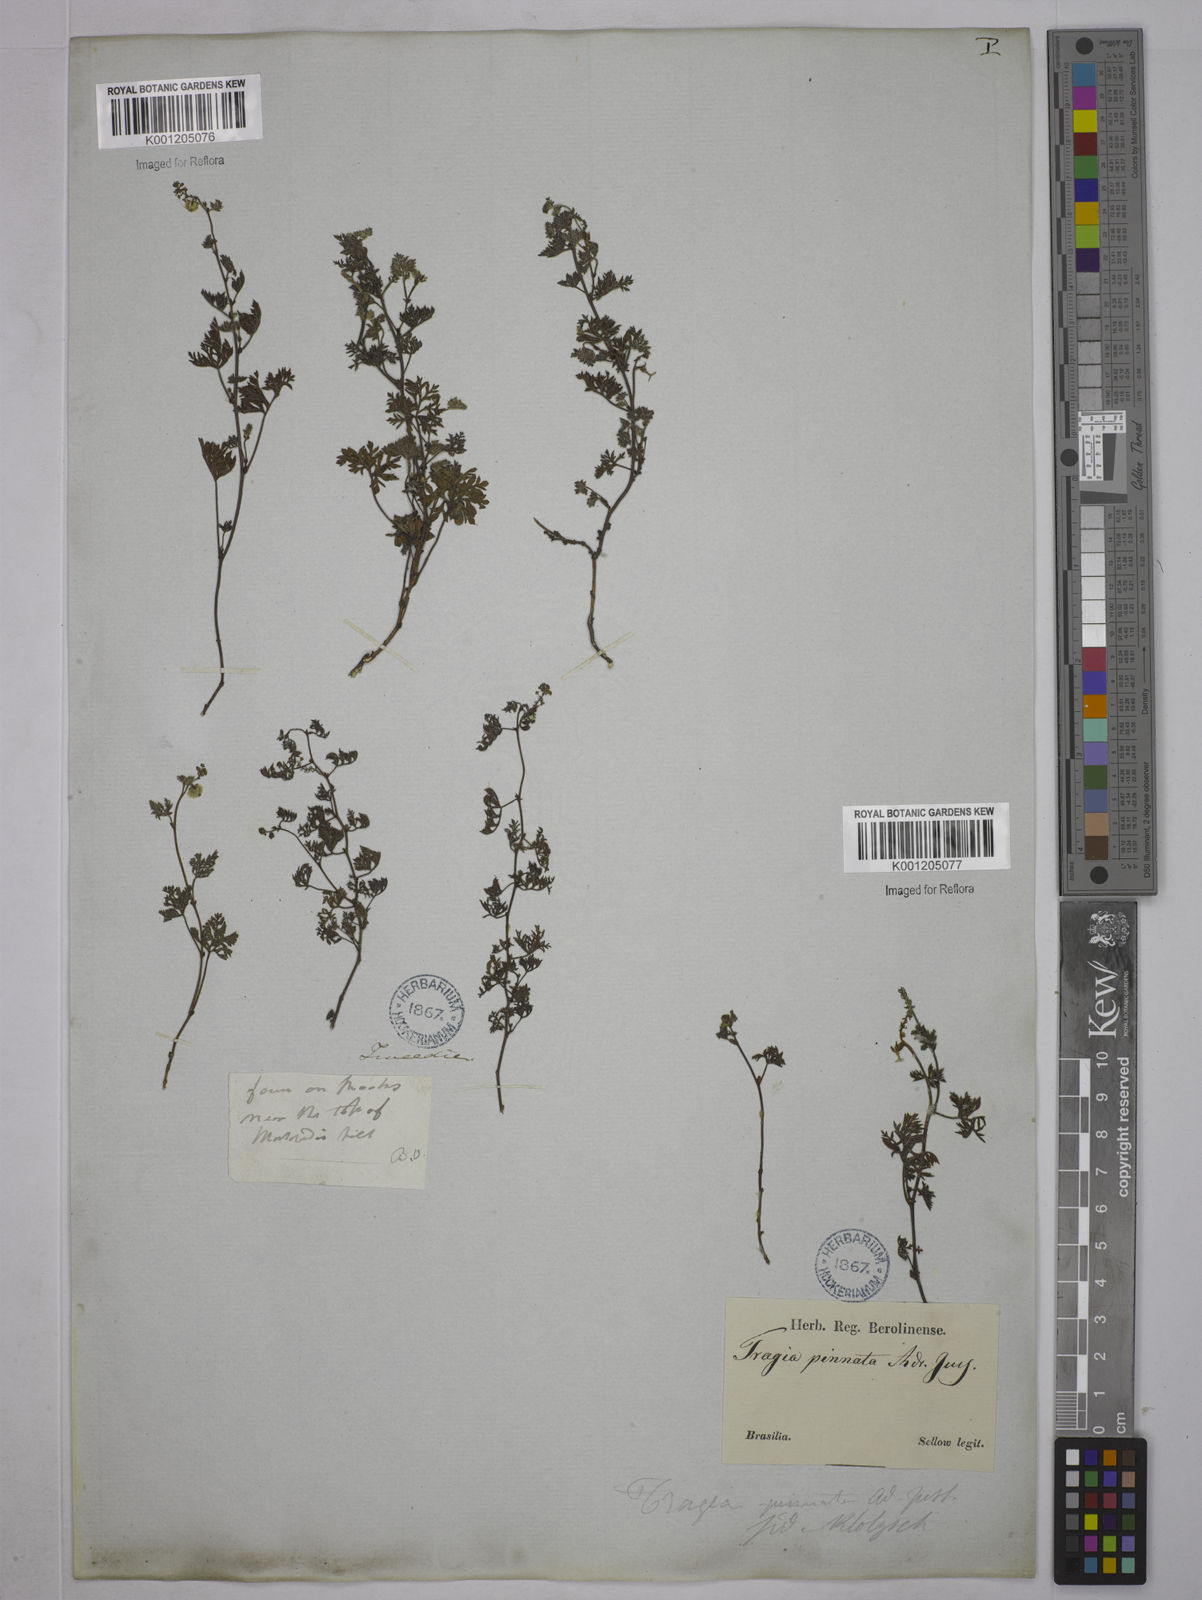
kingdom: Plantae
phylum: Tracheophyta
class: Magnoliopsida
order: Malpighiales
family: Euphorbiaceae
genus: Tragia
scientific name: Tragia pinnata
